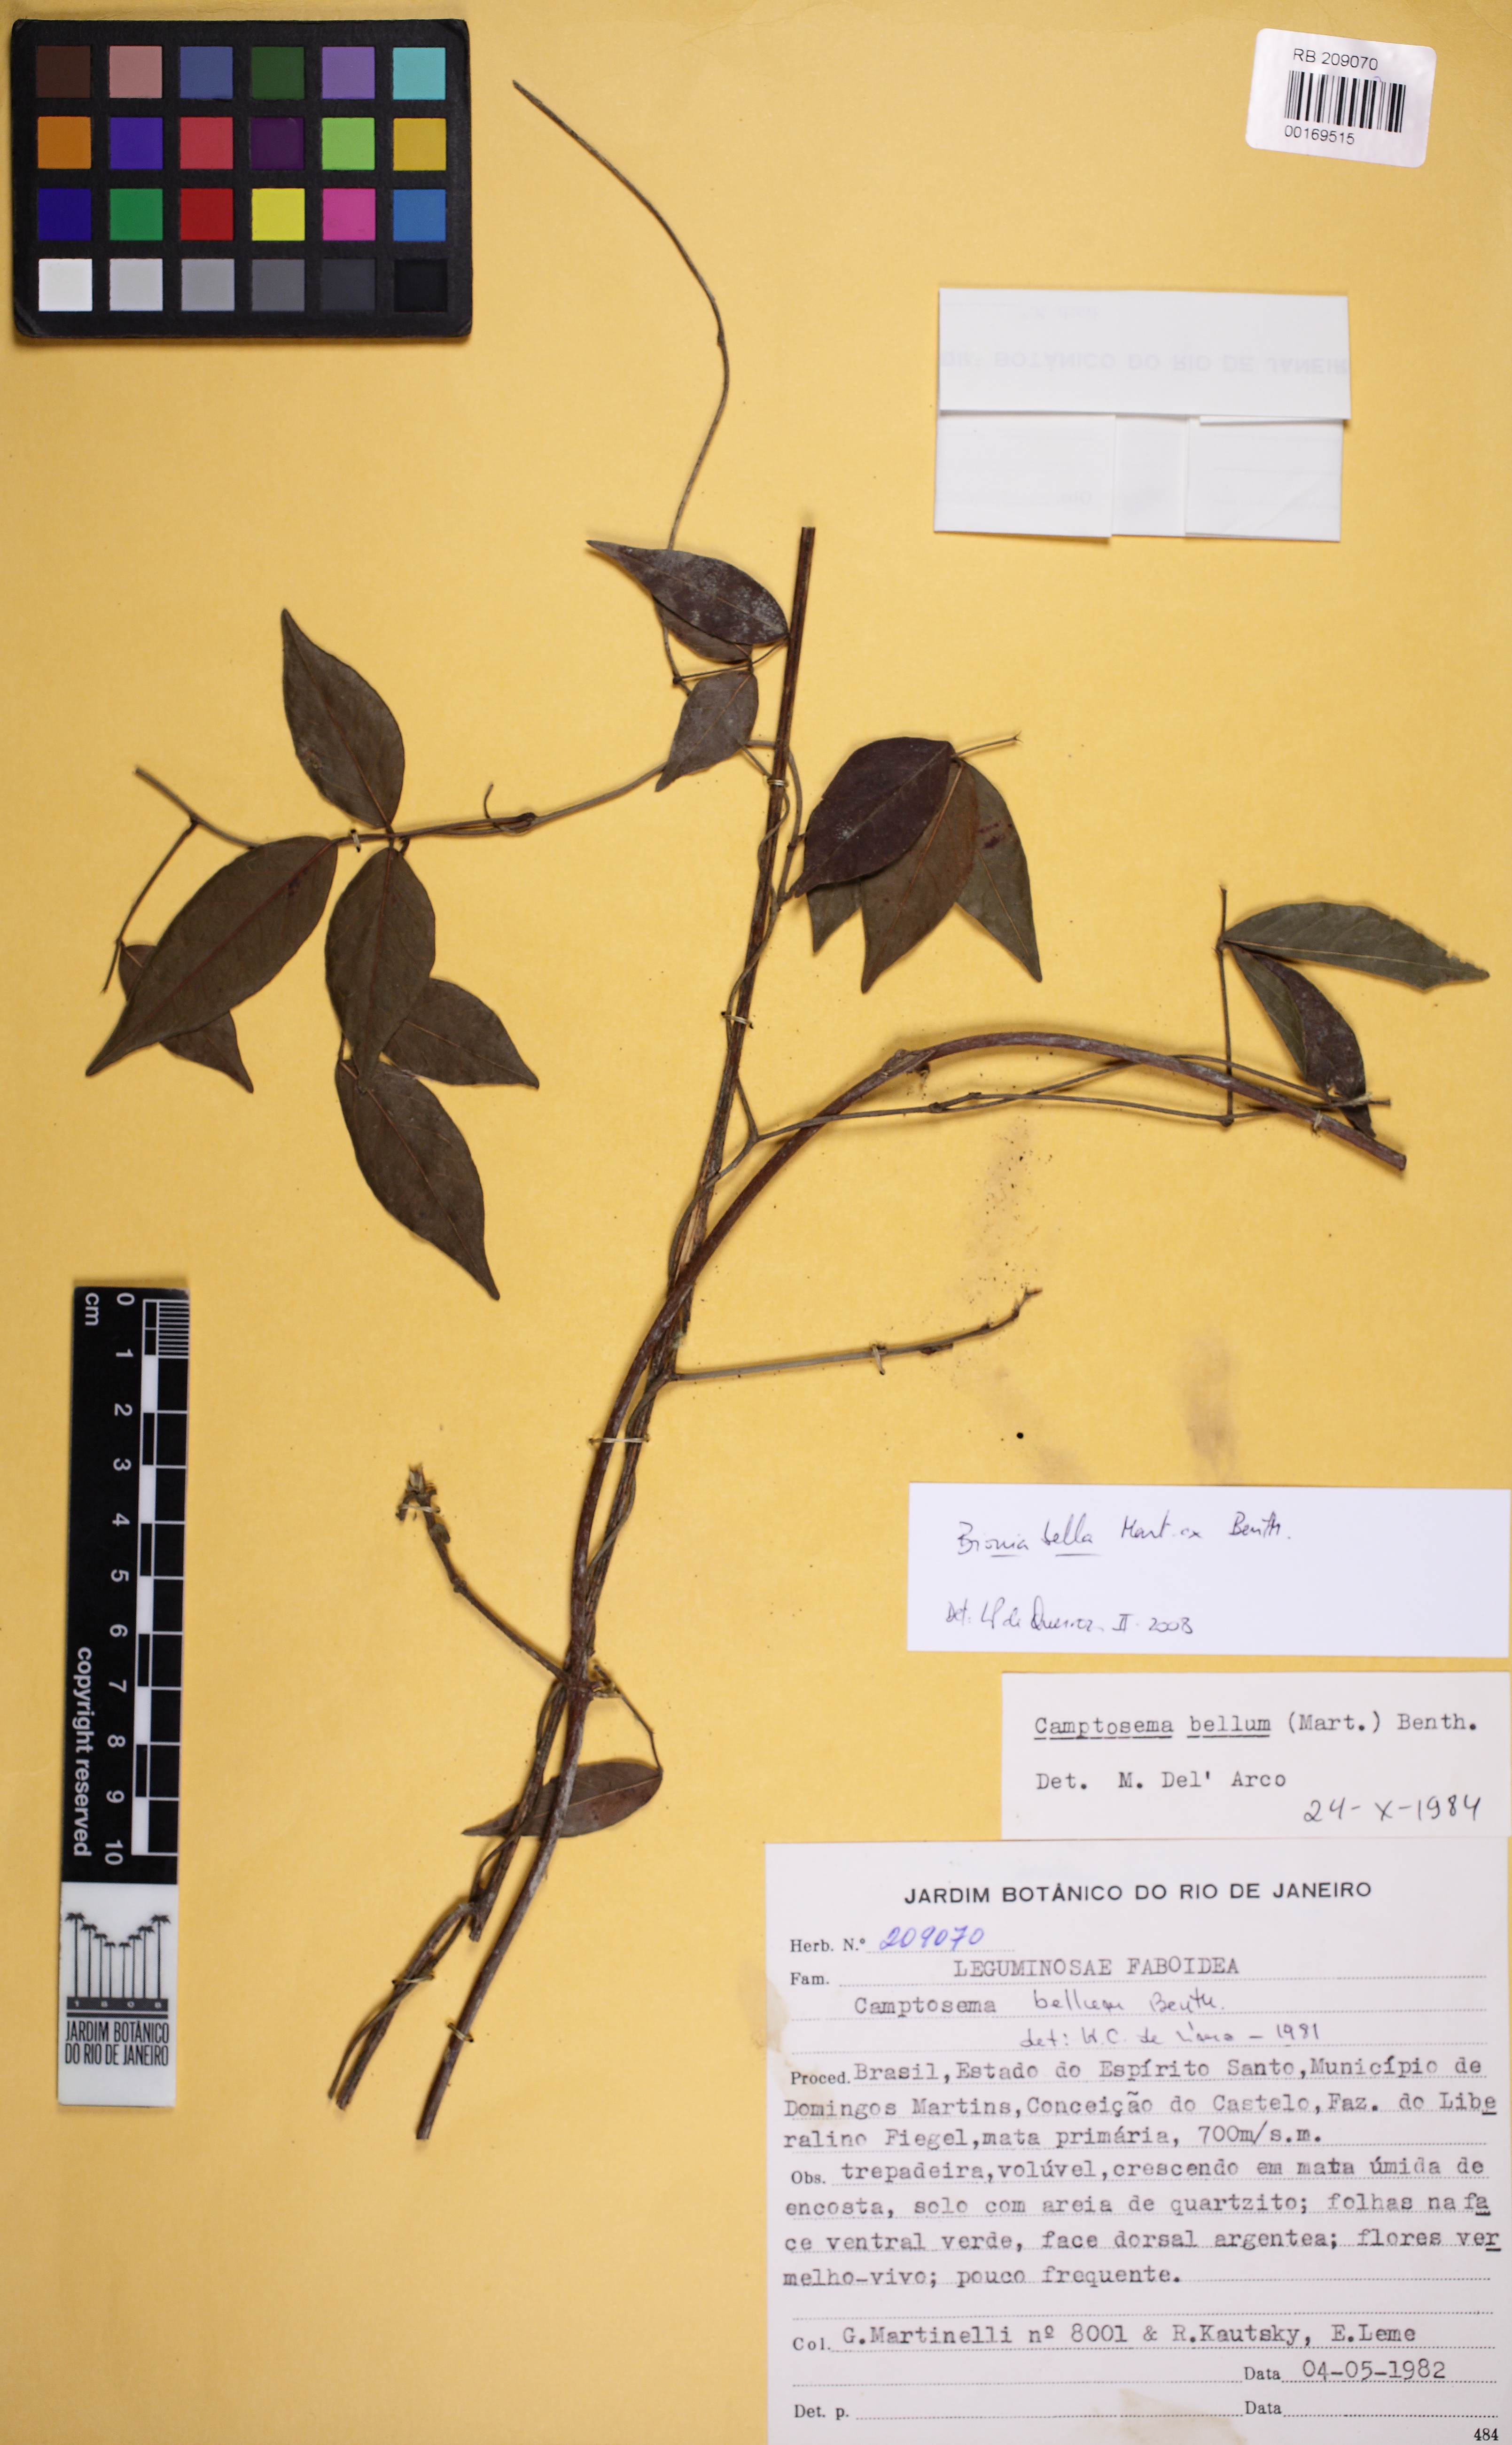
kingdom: Plantae
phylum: Tracheophyta
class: Magnoliopsida
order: Fabales
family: Fabaceae
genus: Mantiqueira
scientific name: Mantiqueira bella
